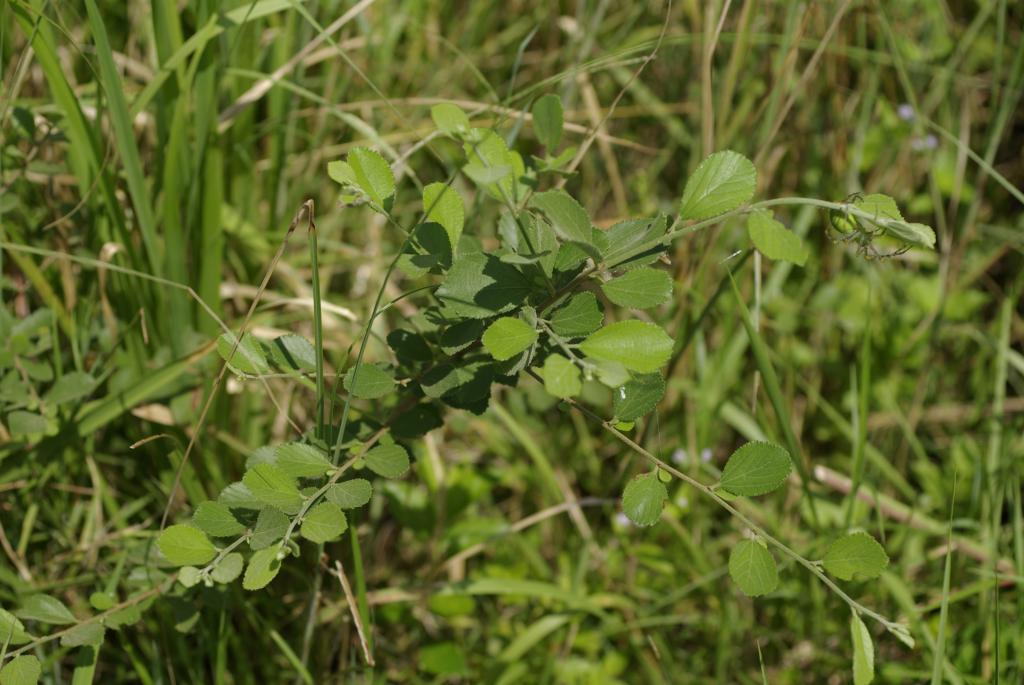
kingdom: Plantae
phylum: Tracheophyta
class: Magnoliopsida
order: Malvales
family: Malvaceae
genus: Grewia
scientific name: Grewia rhombifolia
